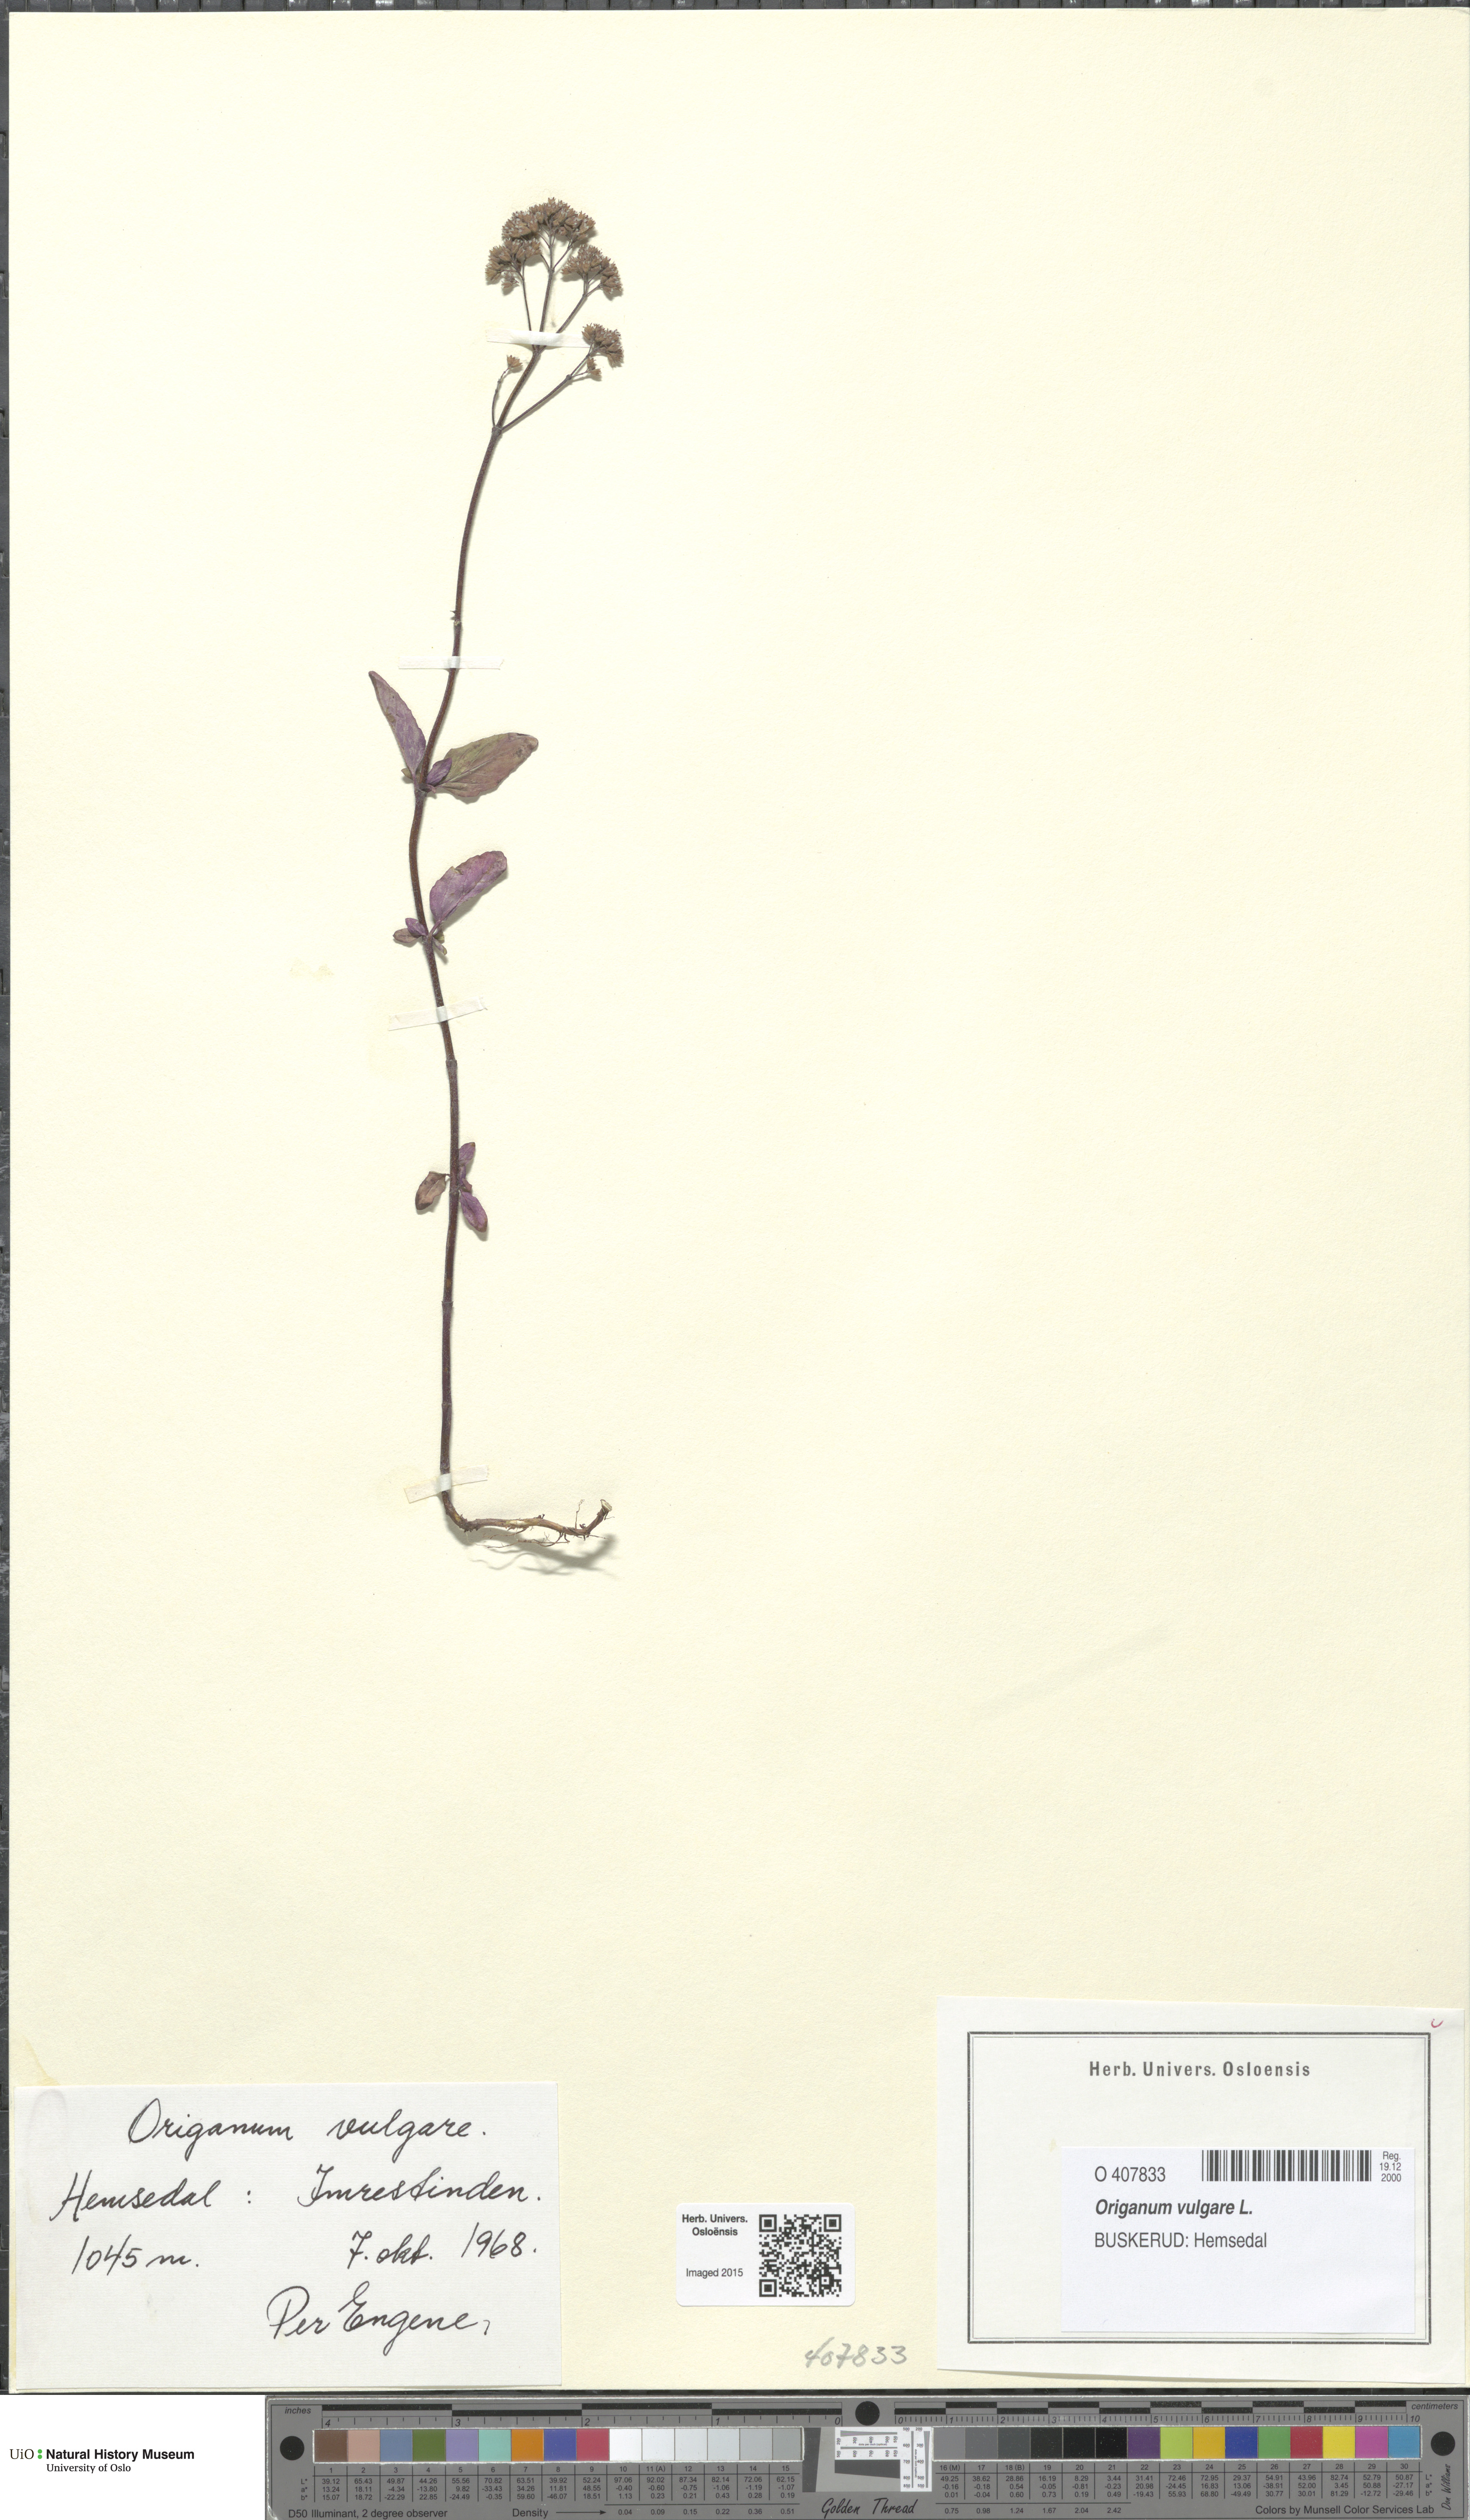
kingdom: Plantae
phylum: Tracheophyta
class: Magnoliopsida
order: Lamiales
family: Lamiaceae
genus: Origanum
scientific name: Origanum vulgare
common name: Wild marjoram
